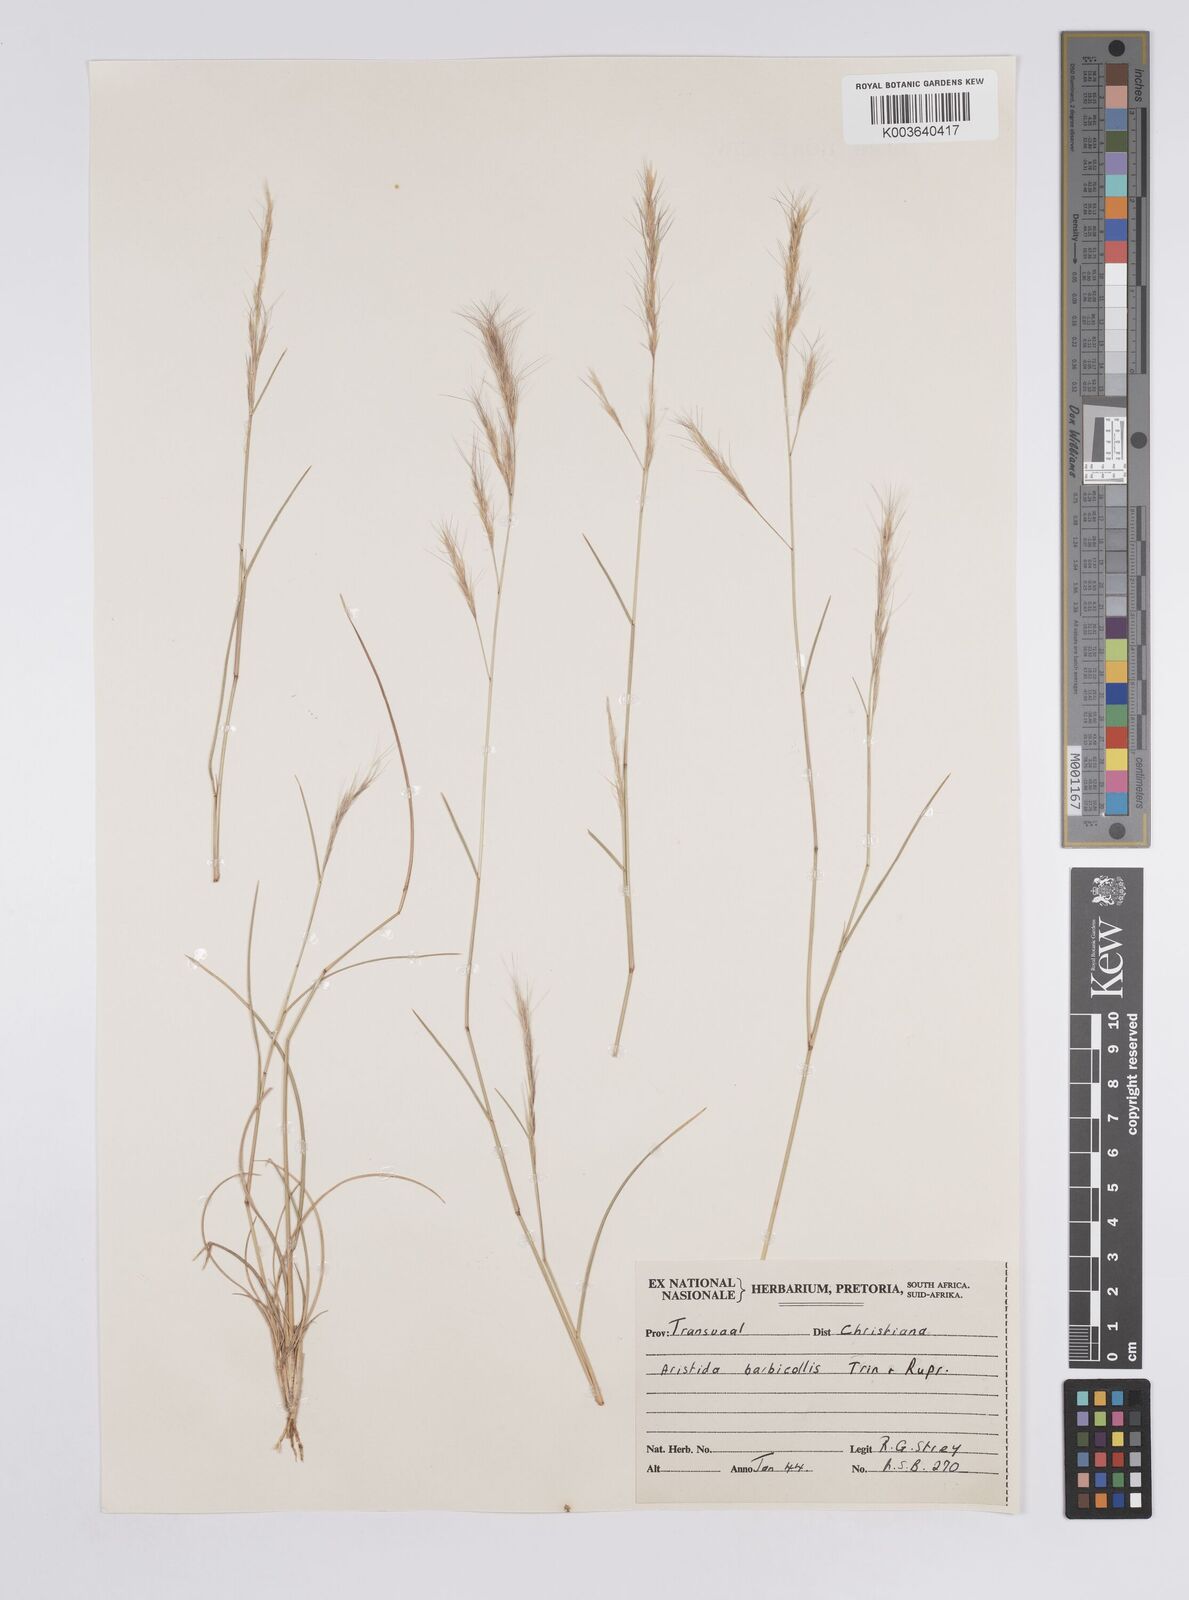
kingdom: Plantae
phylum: Tracheophyta
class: Liliopsida
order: Poales
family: Poaceae
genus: Aristida
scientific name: Aristida barbicollis
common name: Spreading prickle grass
